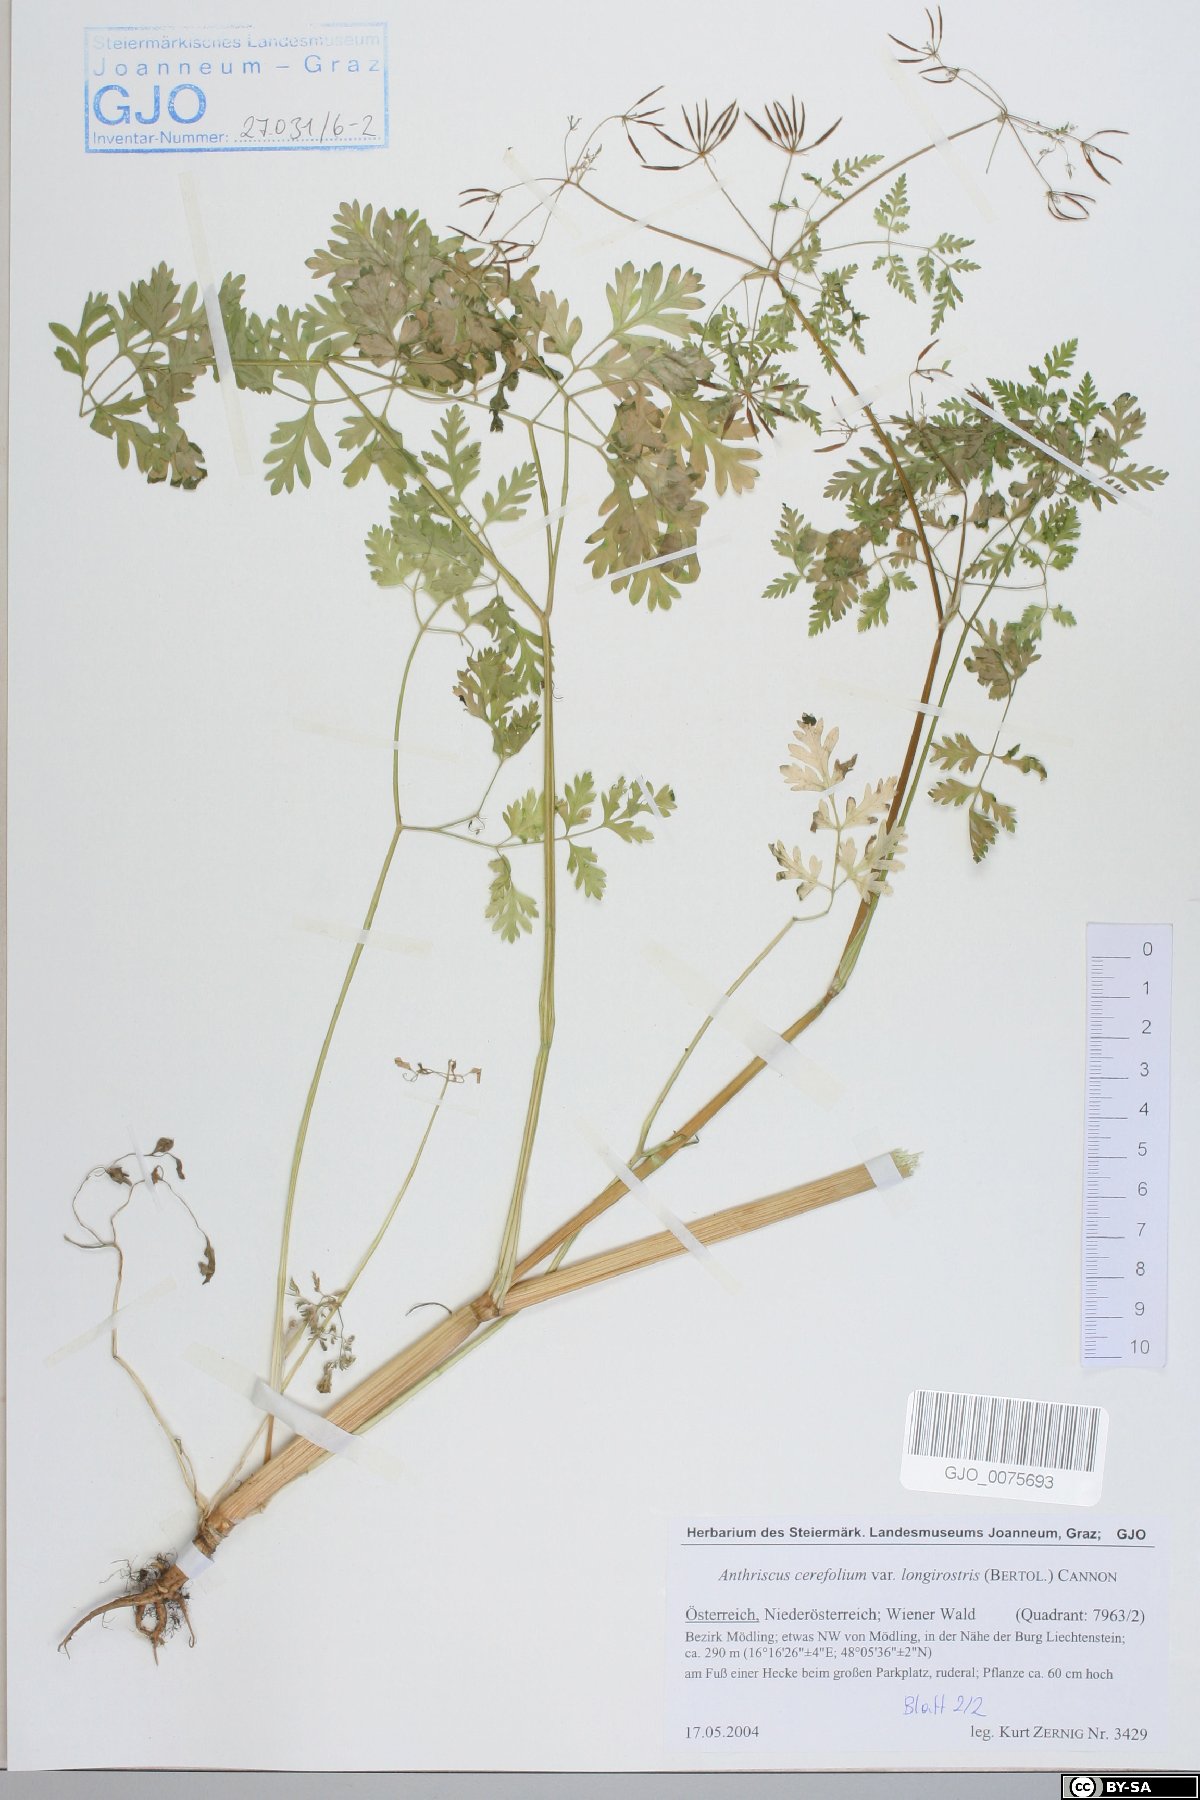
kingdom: Plantae
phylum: Tracheophyta
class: Magnoliopsida
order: Apiales
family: Apiaceae
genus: Anthriscus
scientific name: Anthriscus cerefolium
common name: Garden chervil
